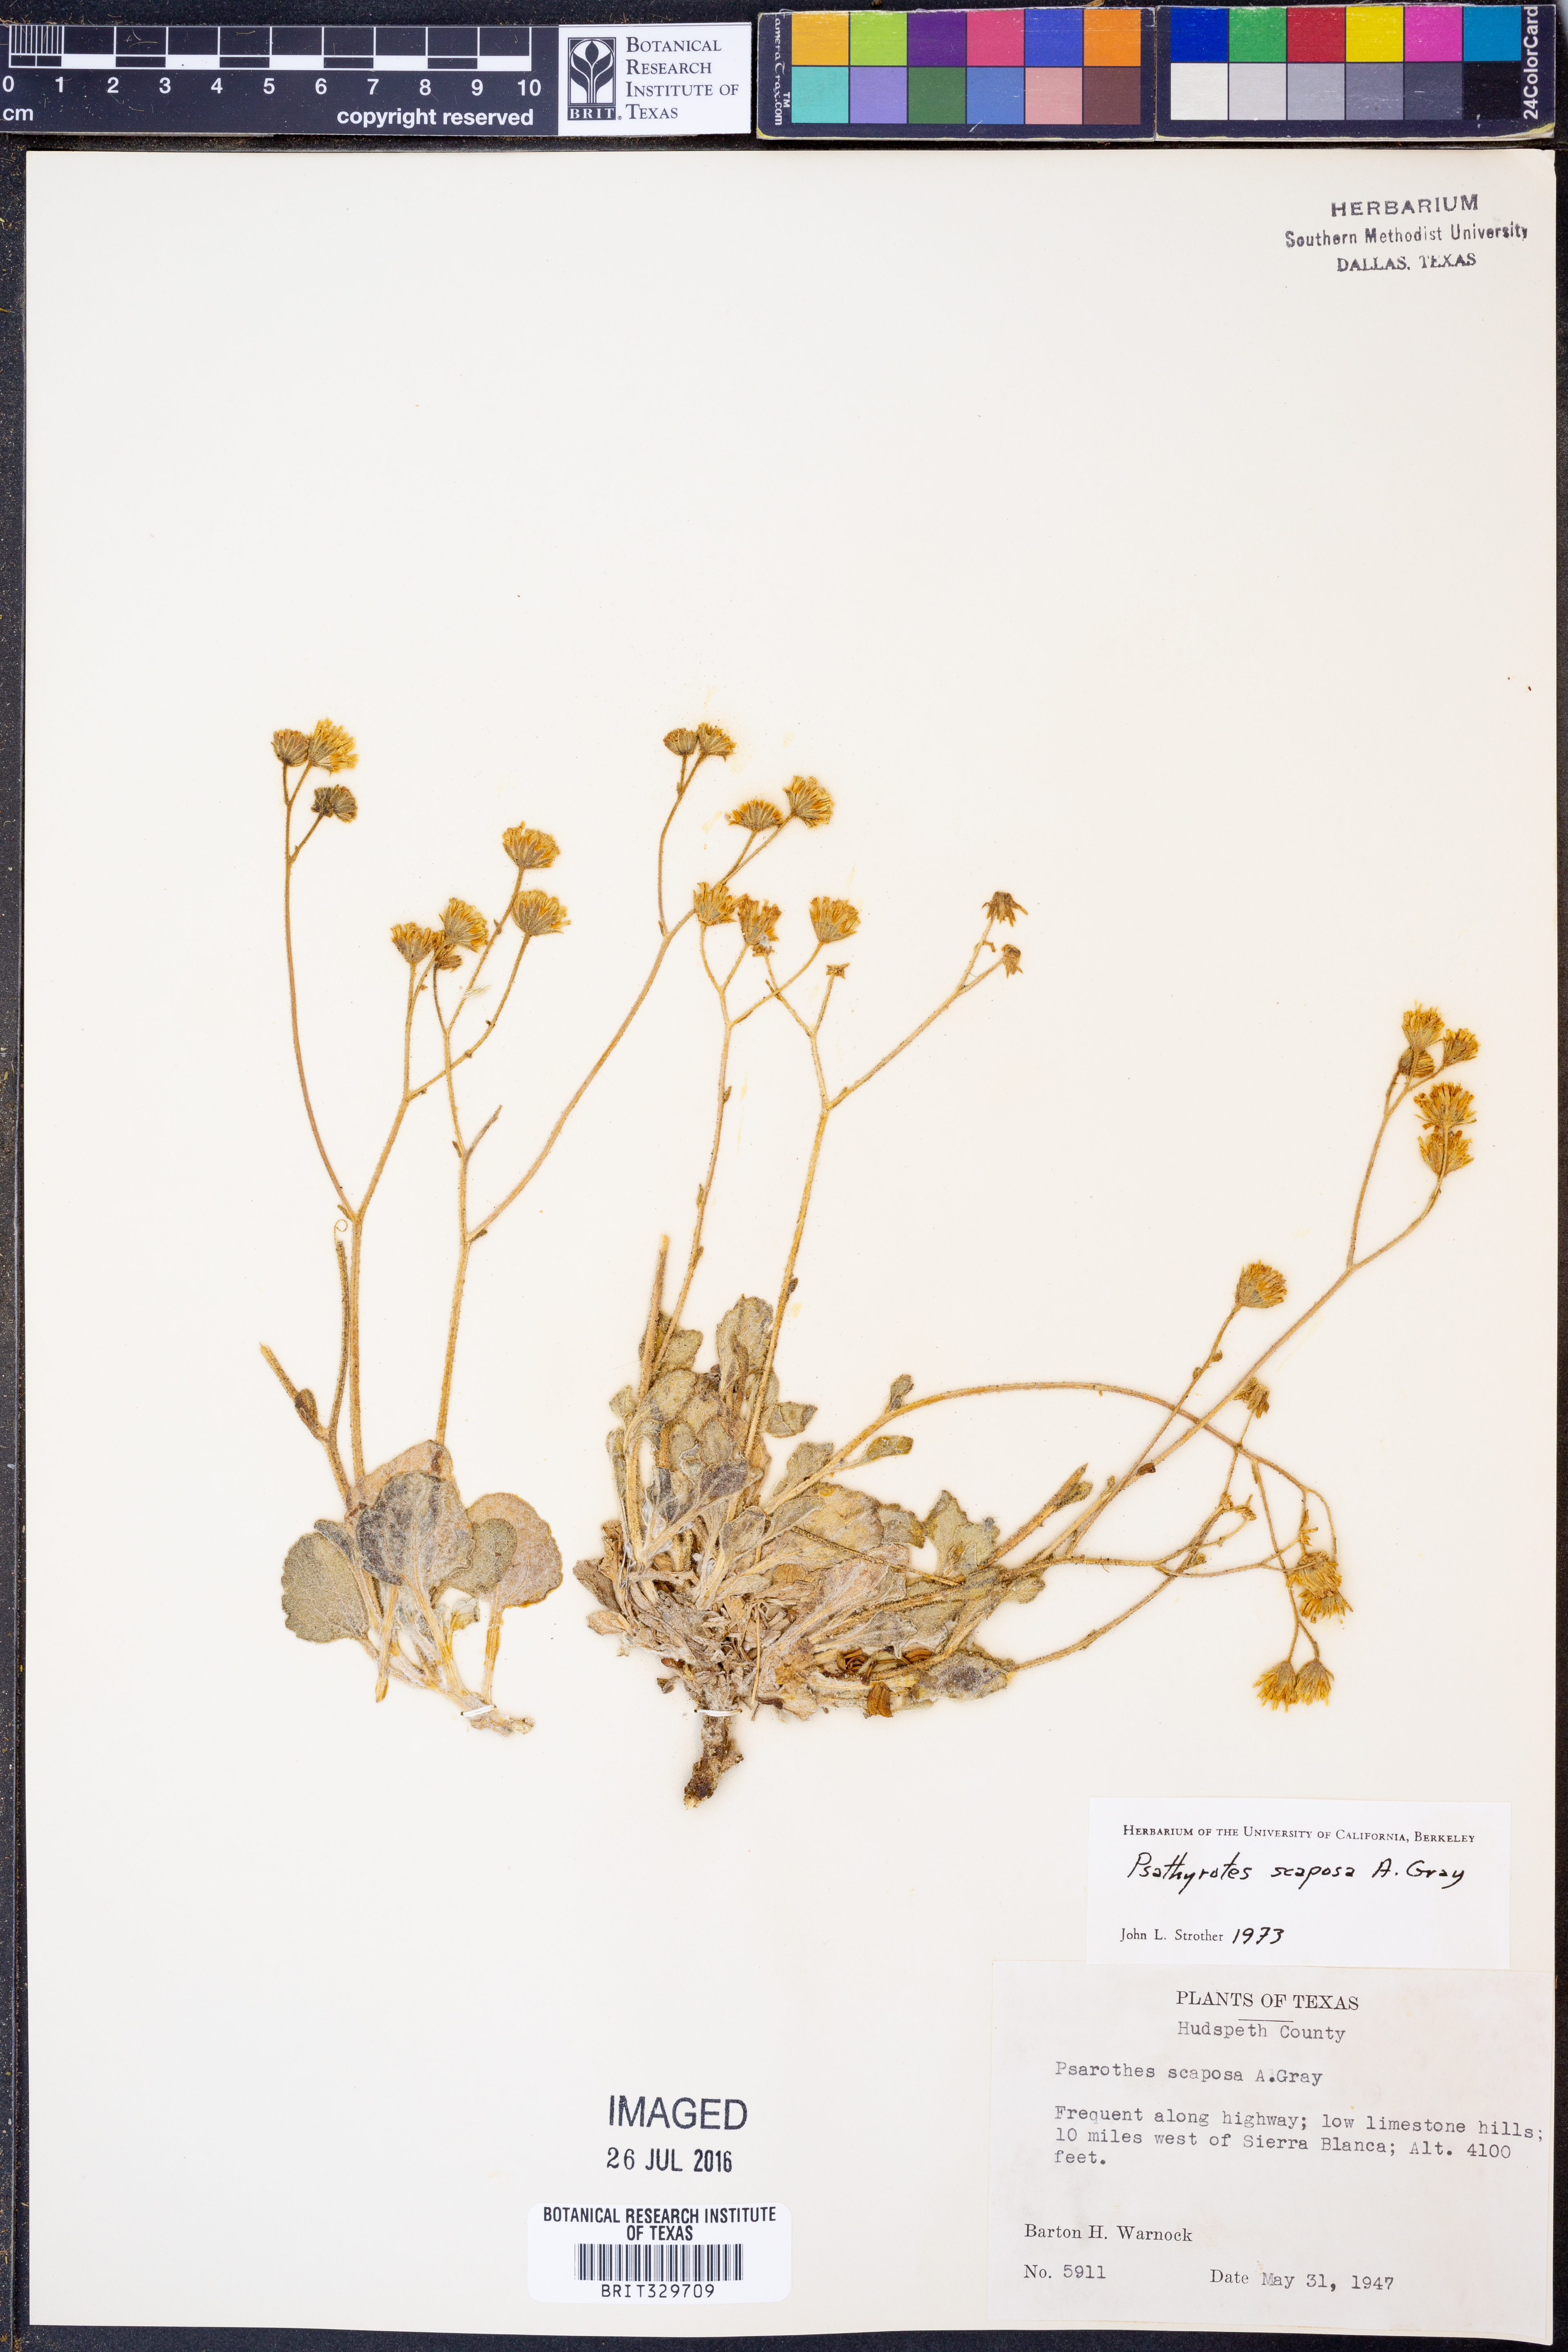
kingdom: Plantae
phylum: Tracheophyta
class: Magnoliopsida
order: Asterales
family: Asteraceae
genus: Psathyrotopsis
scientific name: Psathyrotopsis scaposa
